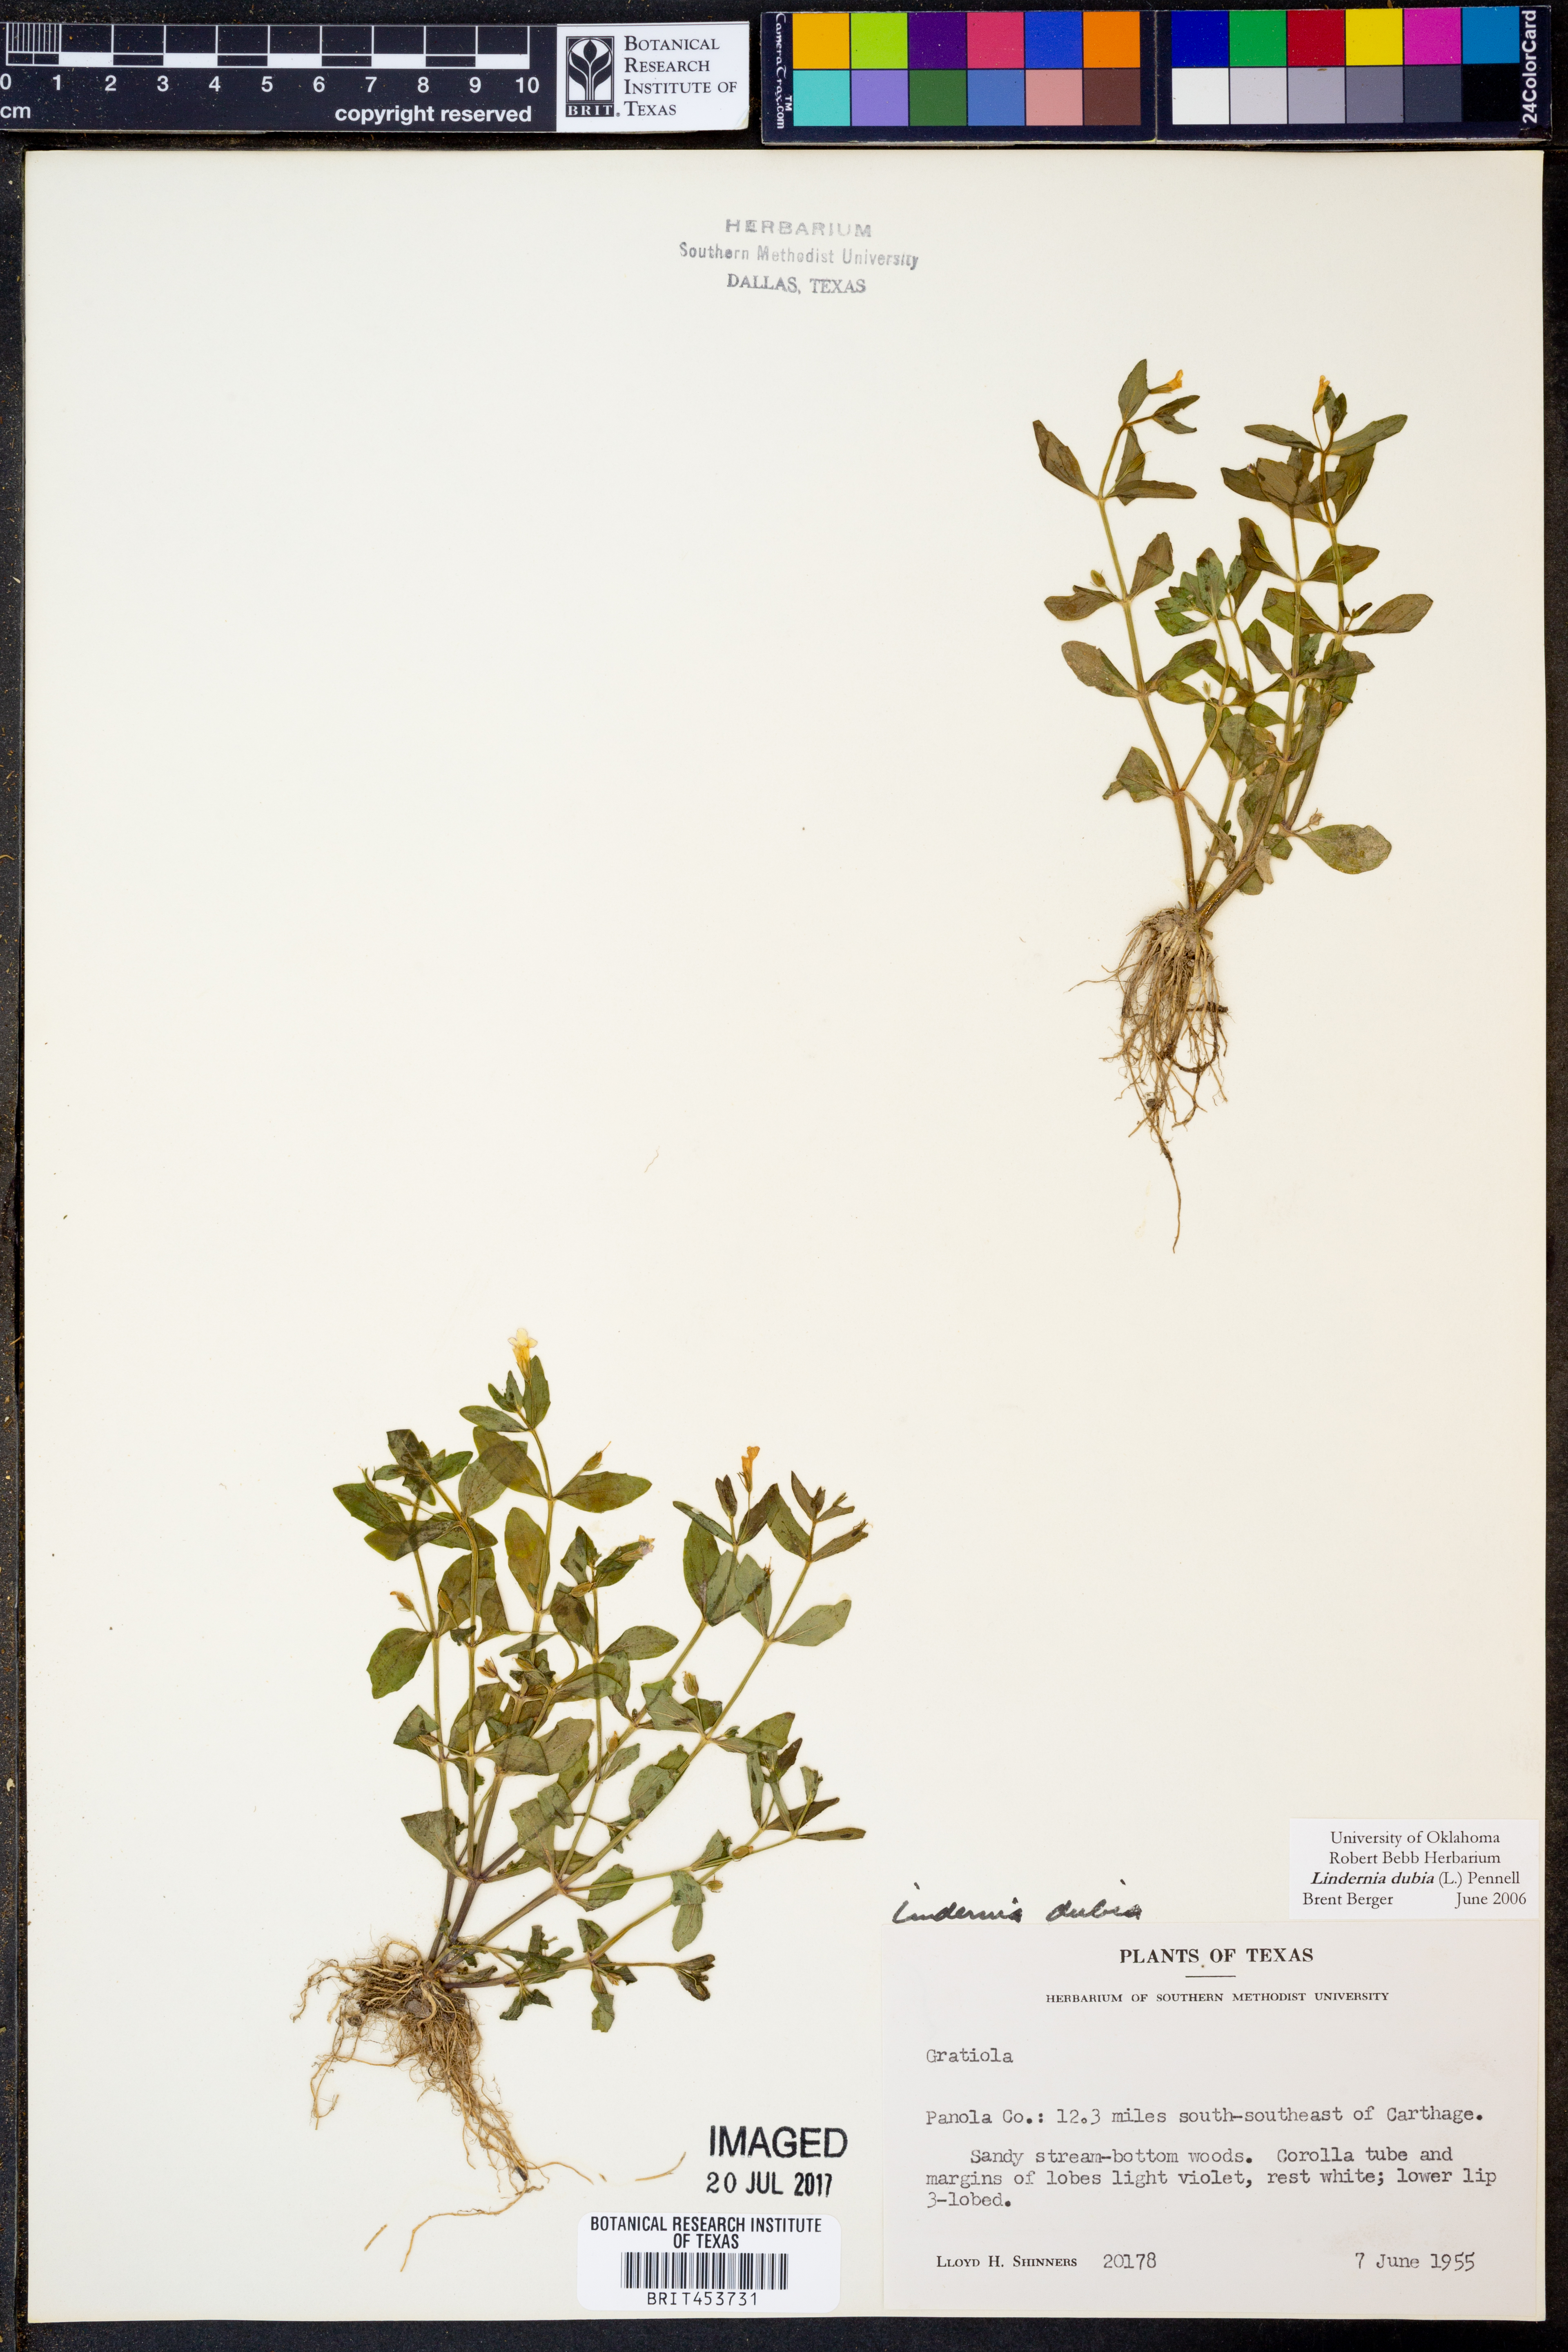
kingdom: Plantae
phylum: Tracheophyta
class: Magnoliopsida
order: Lamiales
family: Linderniaceae
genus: Lindernia
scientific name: Lindernia dubia
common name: Annual false pimpernel
